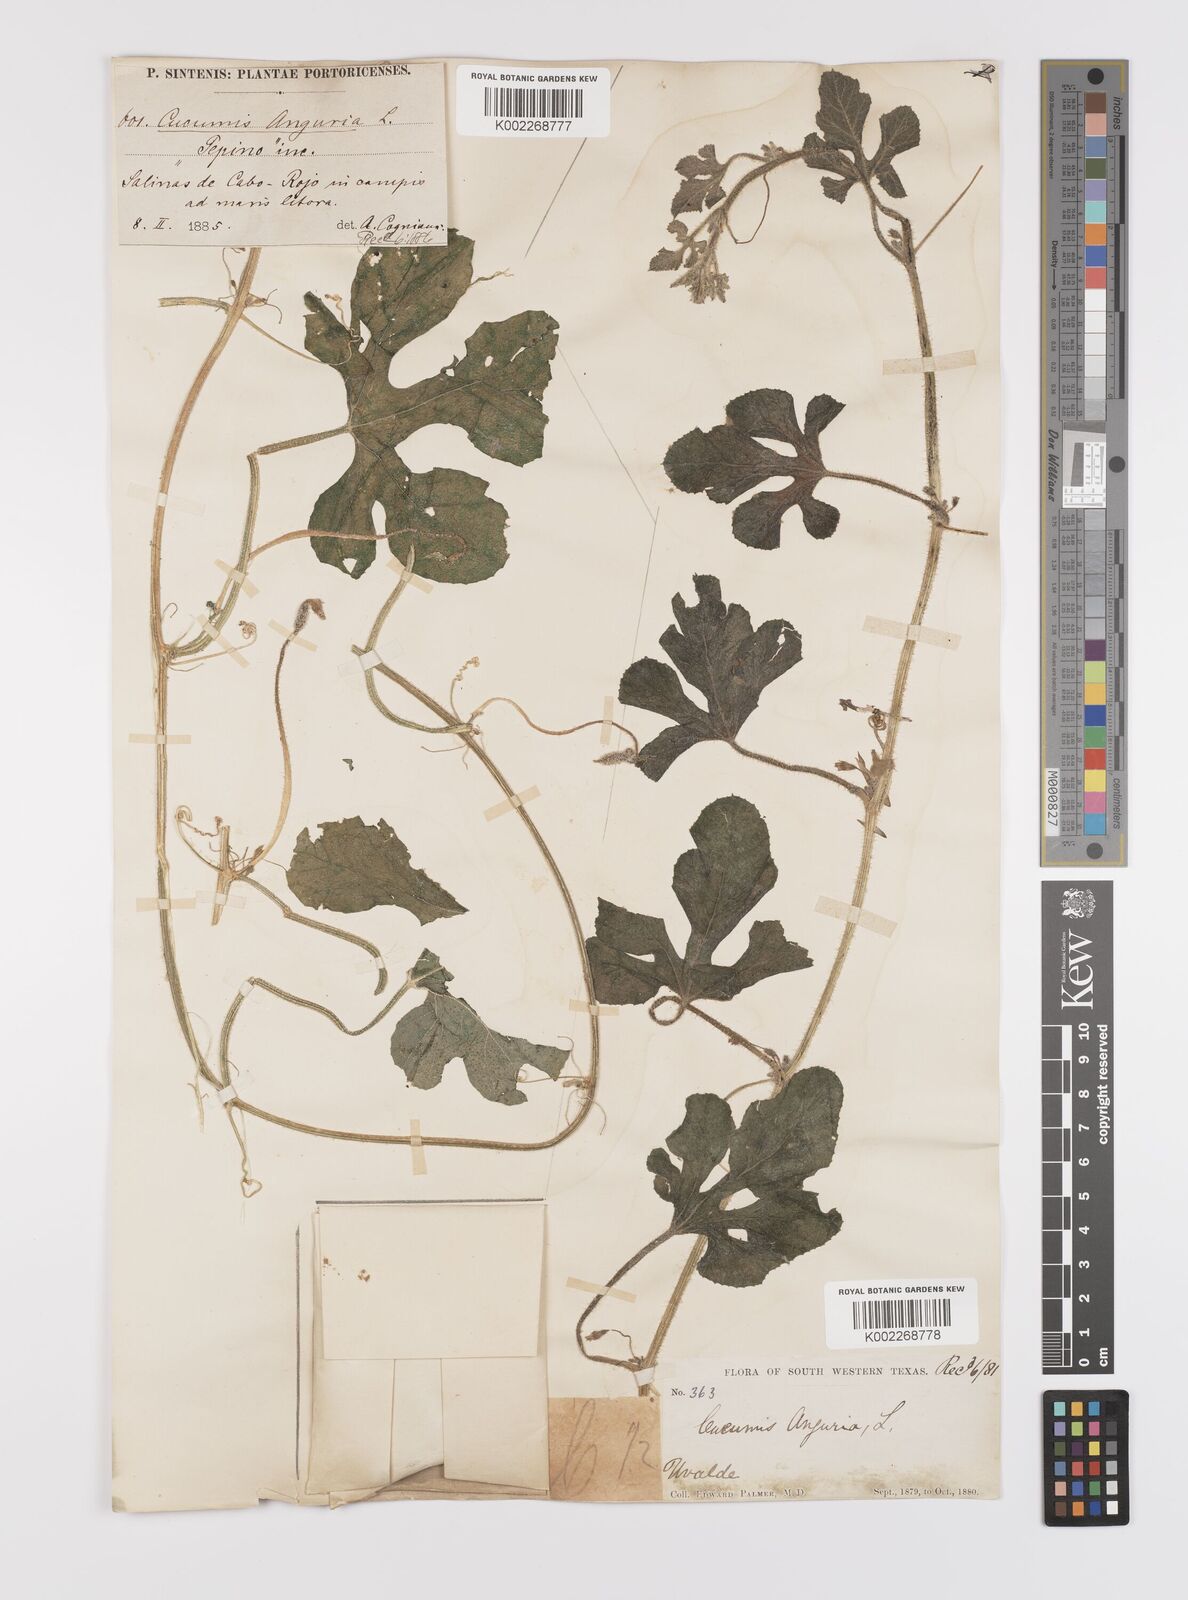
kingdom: Plantae
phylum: Tracheophyta
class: Magnoliopsida
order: Cucurbitales
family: Cucurbitaceae
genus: Cucumis
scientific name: Cucumis anguria
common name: West indian gherkin
